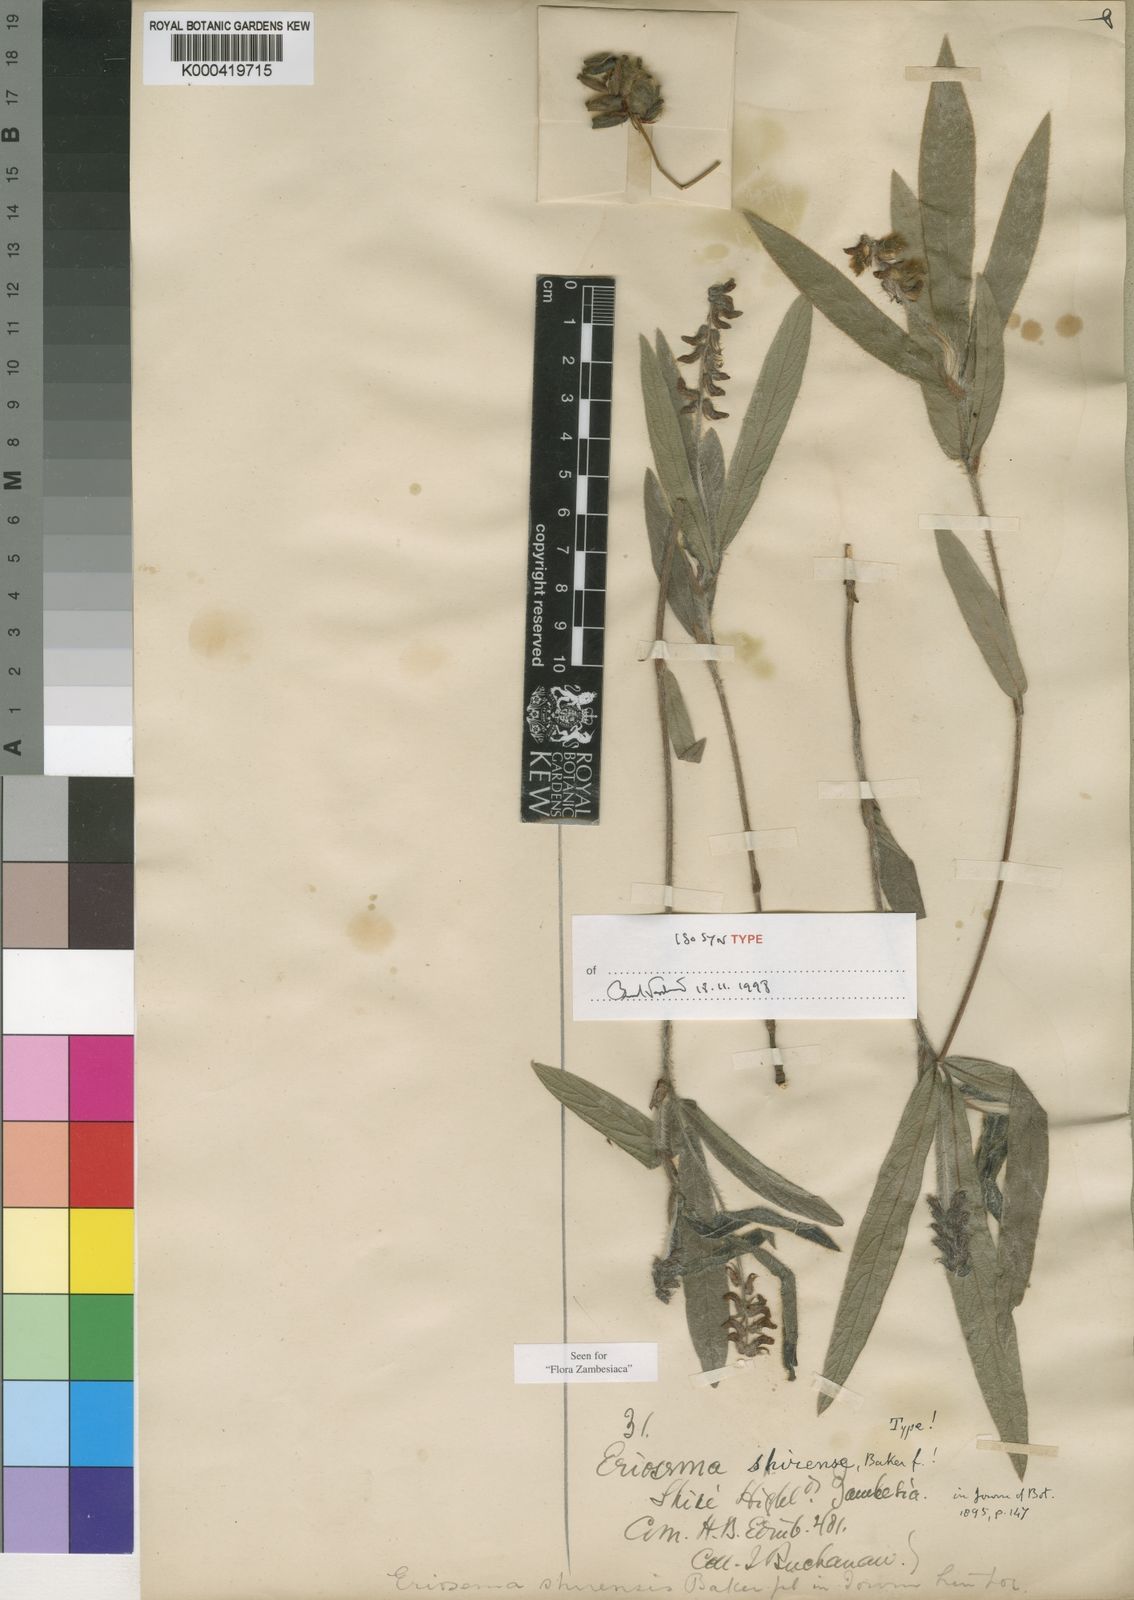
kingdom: Plantae
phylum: Tracheophyta
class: Magnoliopsida
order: Fabales
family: Fabaceae
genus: Eriosema
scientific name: Eriosema shirense
